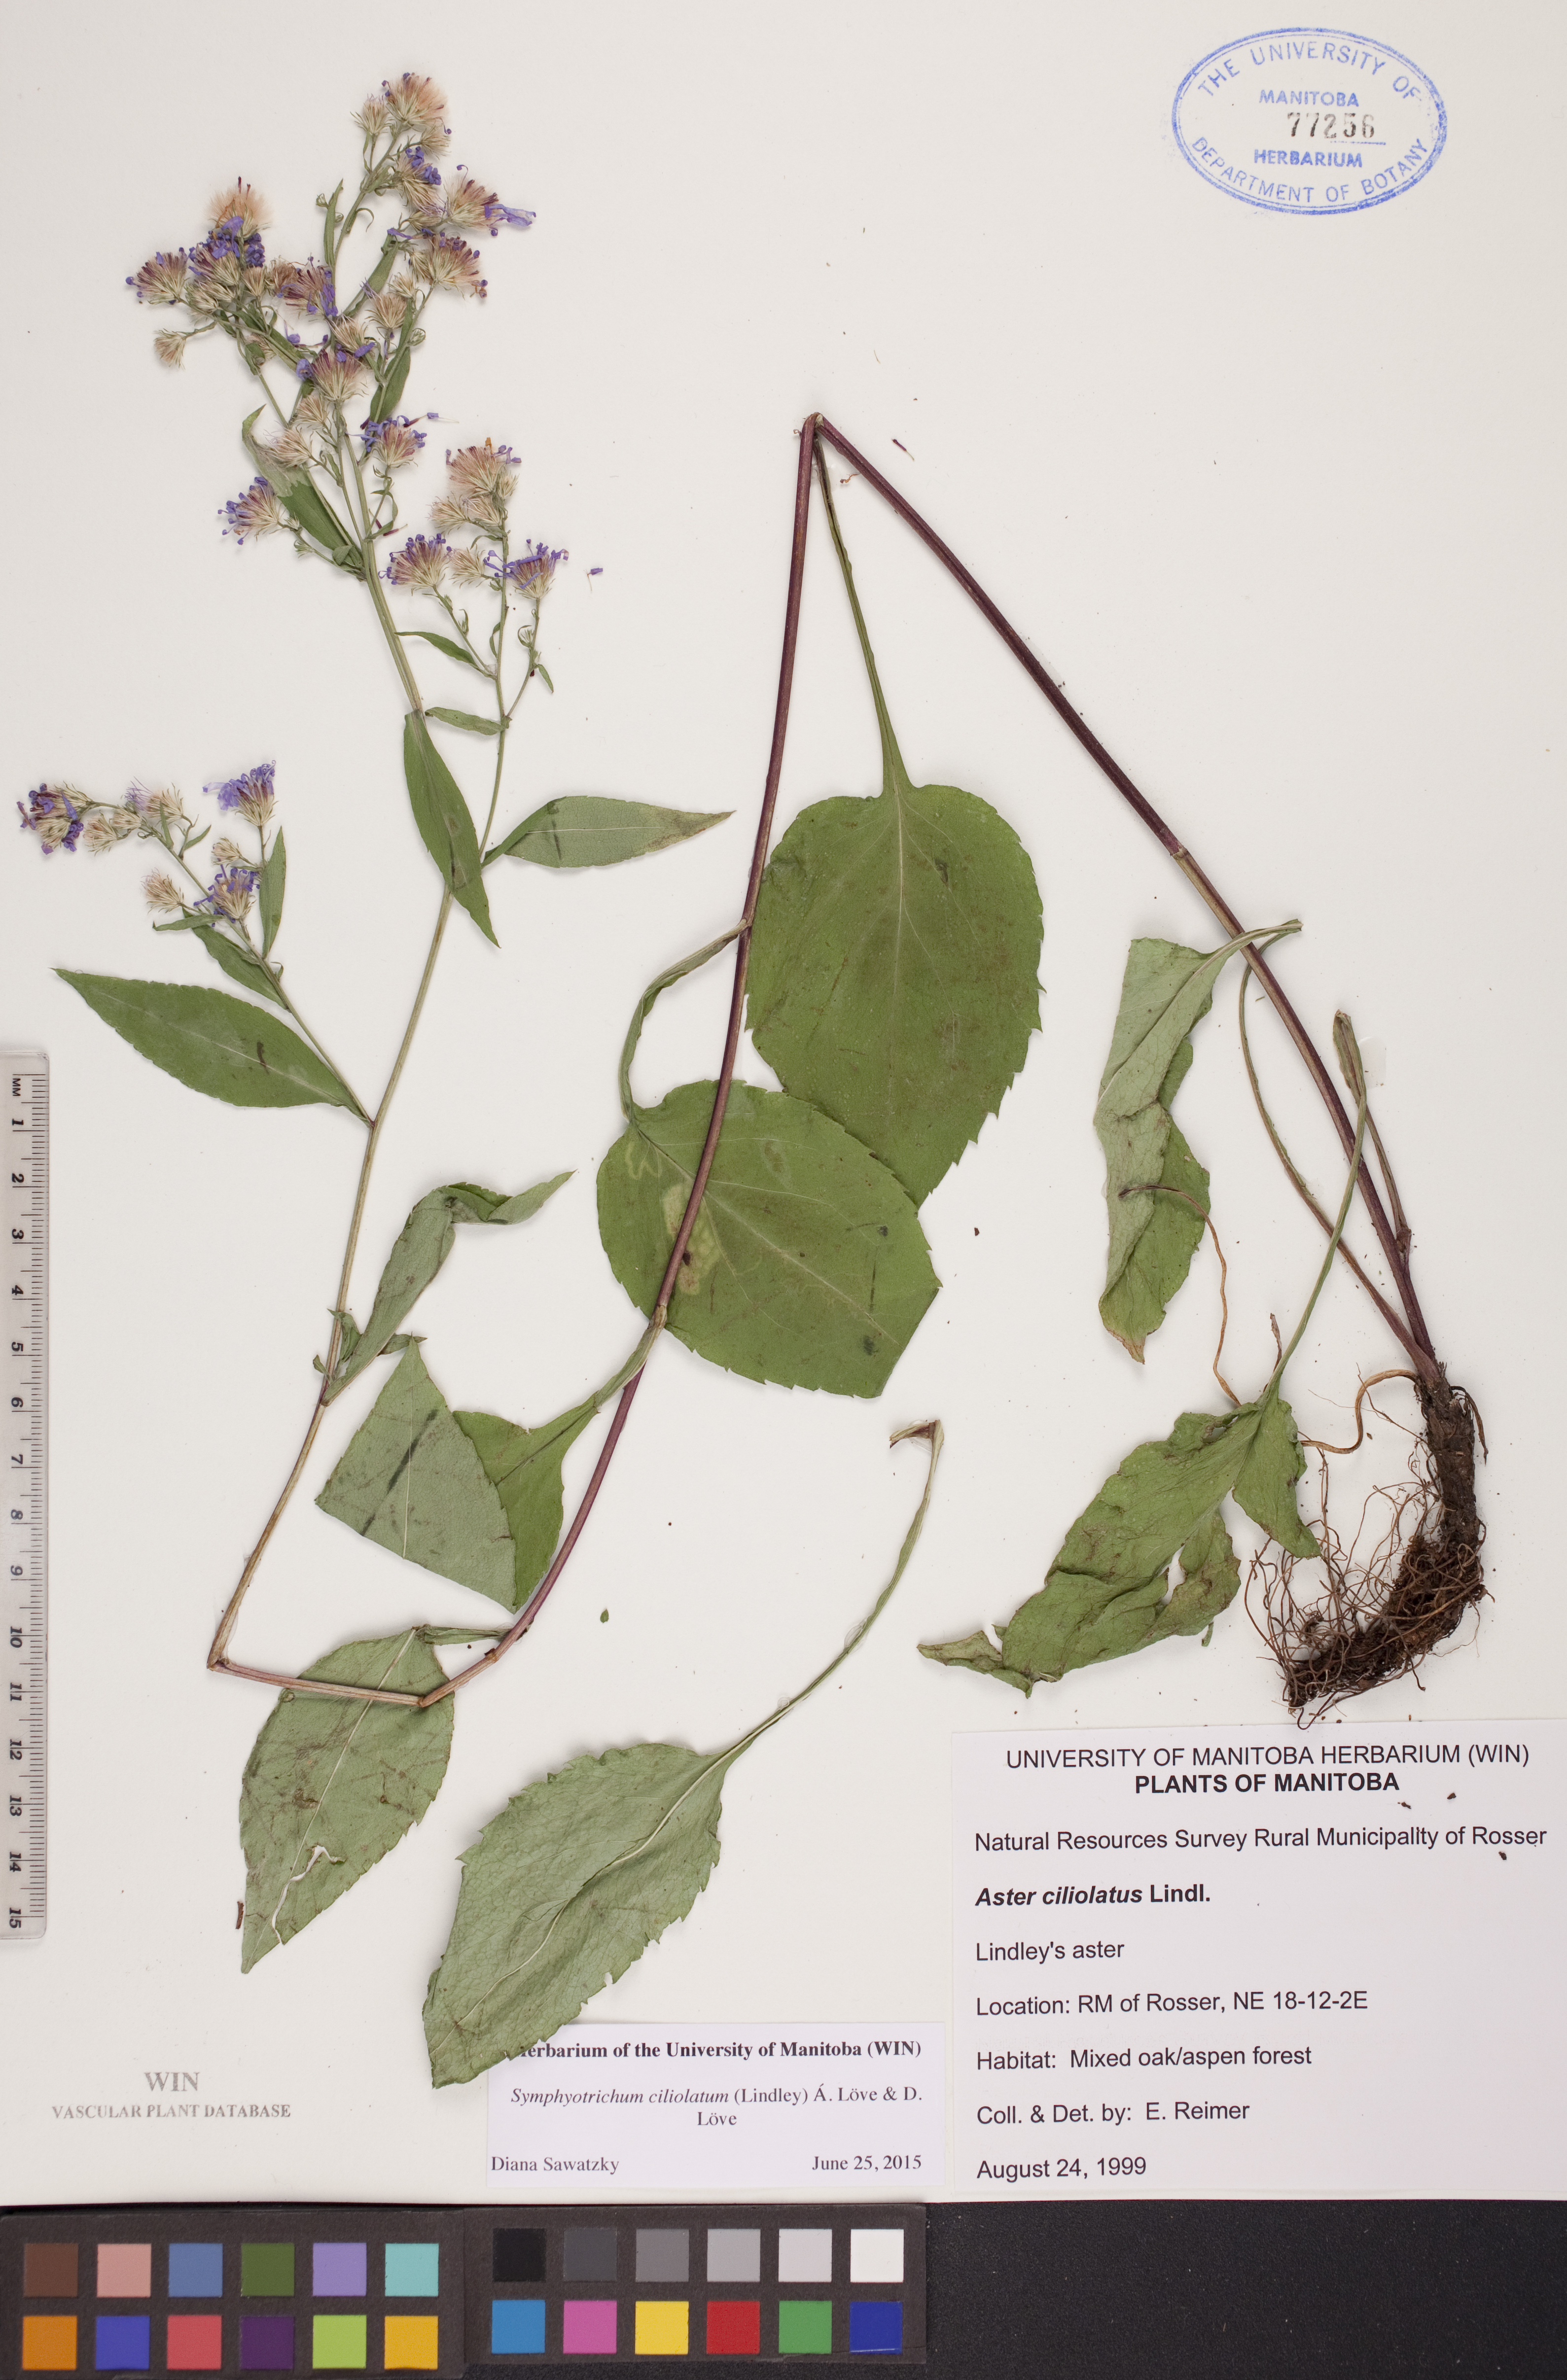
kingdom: Plantae
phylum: Tracheophyta
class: Magnoliopsida
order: Asterales
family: Asteraceae
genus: Symphyotrichum
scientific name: Symphyotrichum ciliolatum
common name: Fringed blue aster
